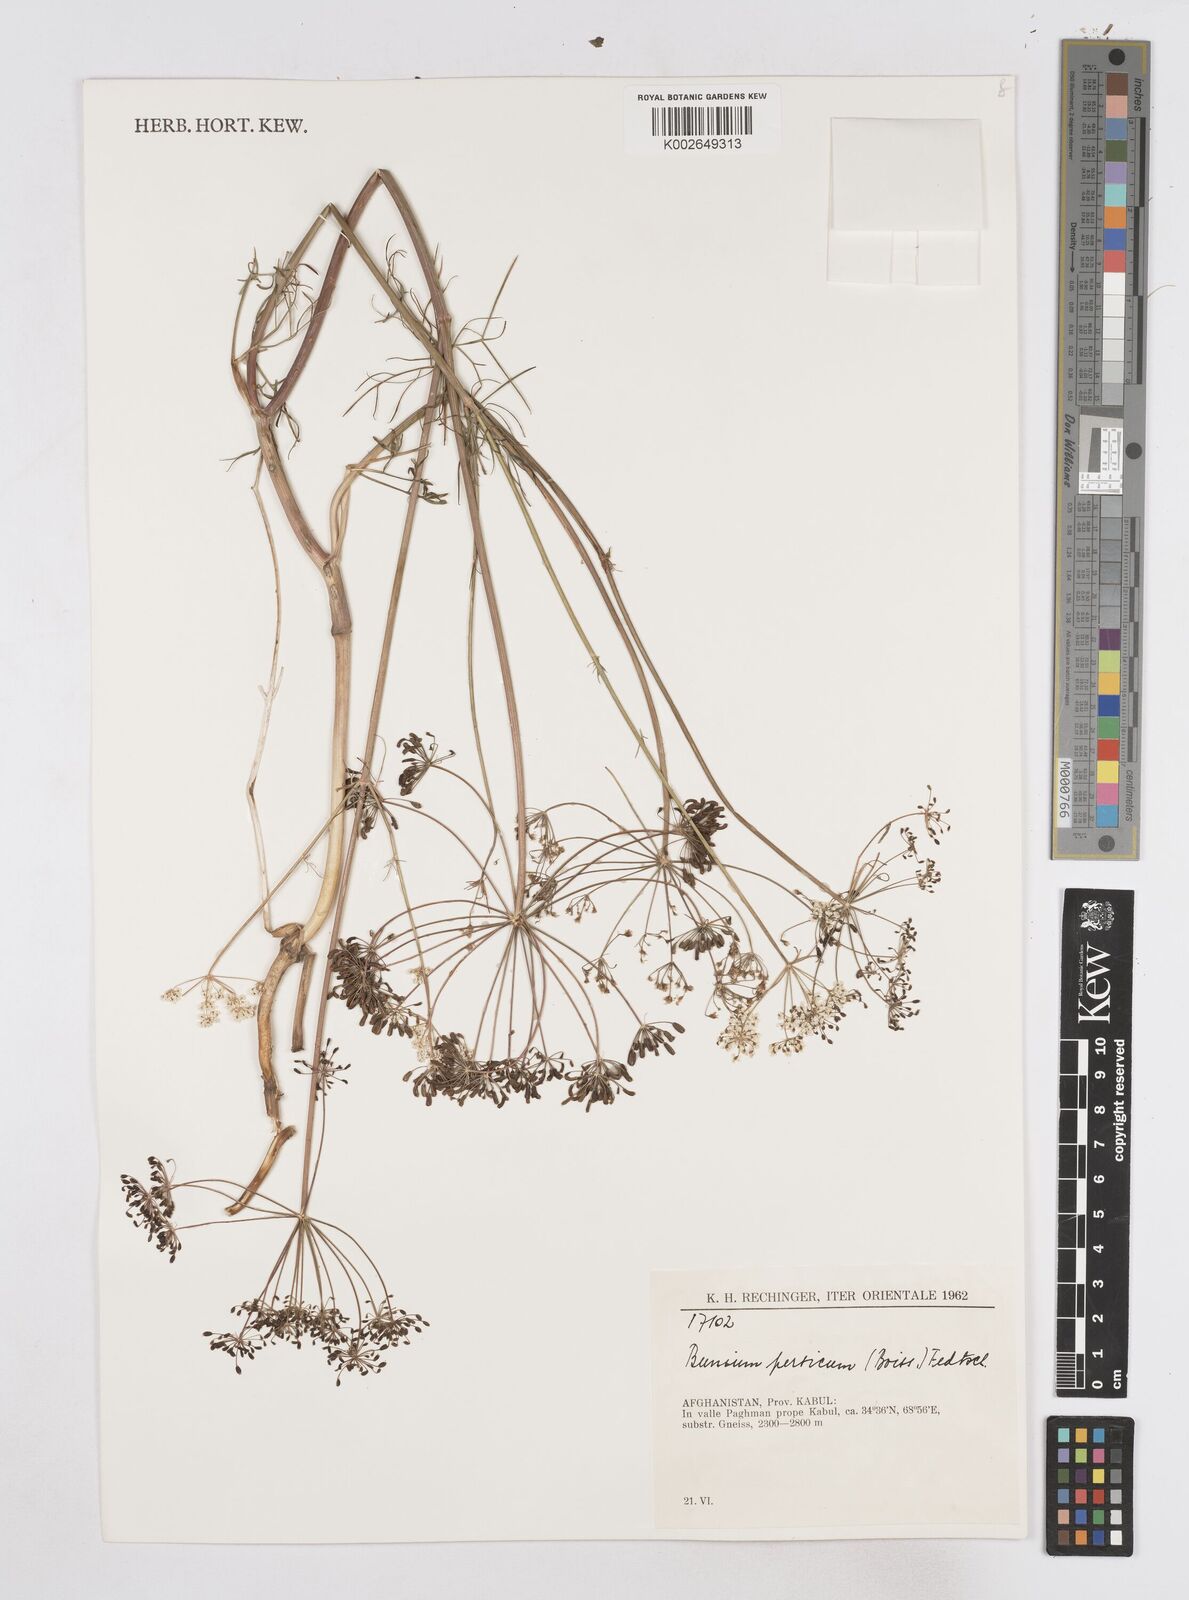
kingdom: Plantae
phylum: Tracheophyta
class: Magnoliopsida
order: Apiales
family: Apiaceae
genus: Elwendia
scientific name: Elwendia persica
